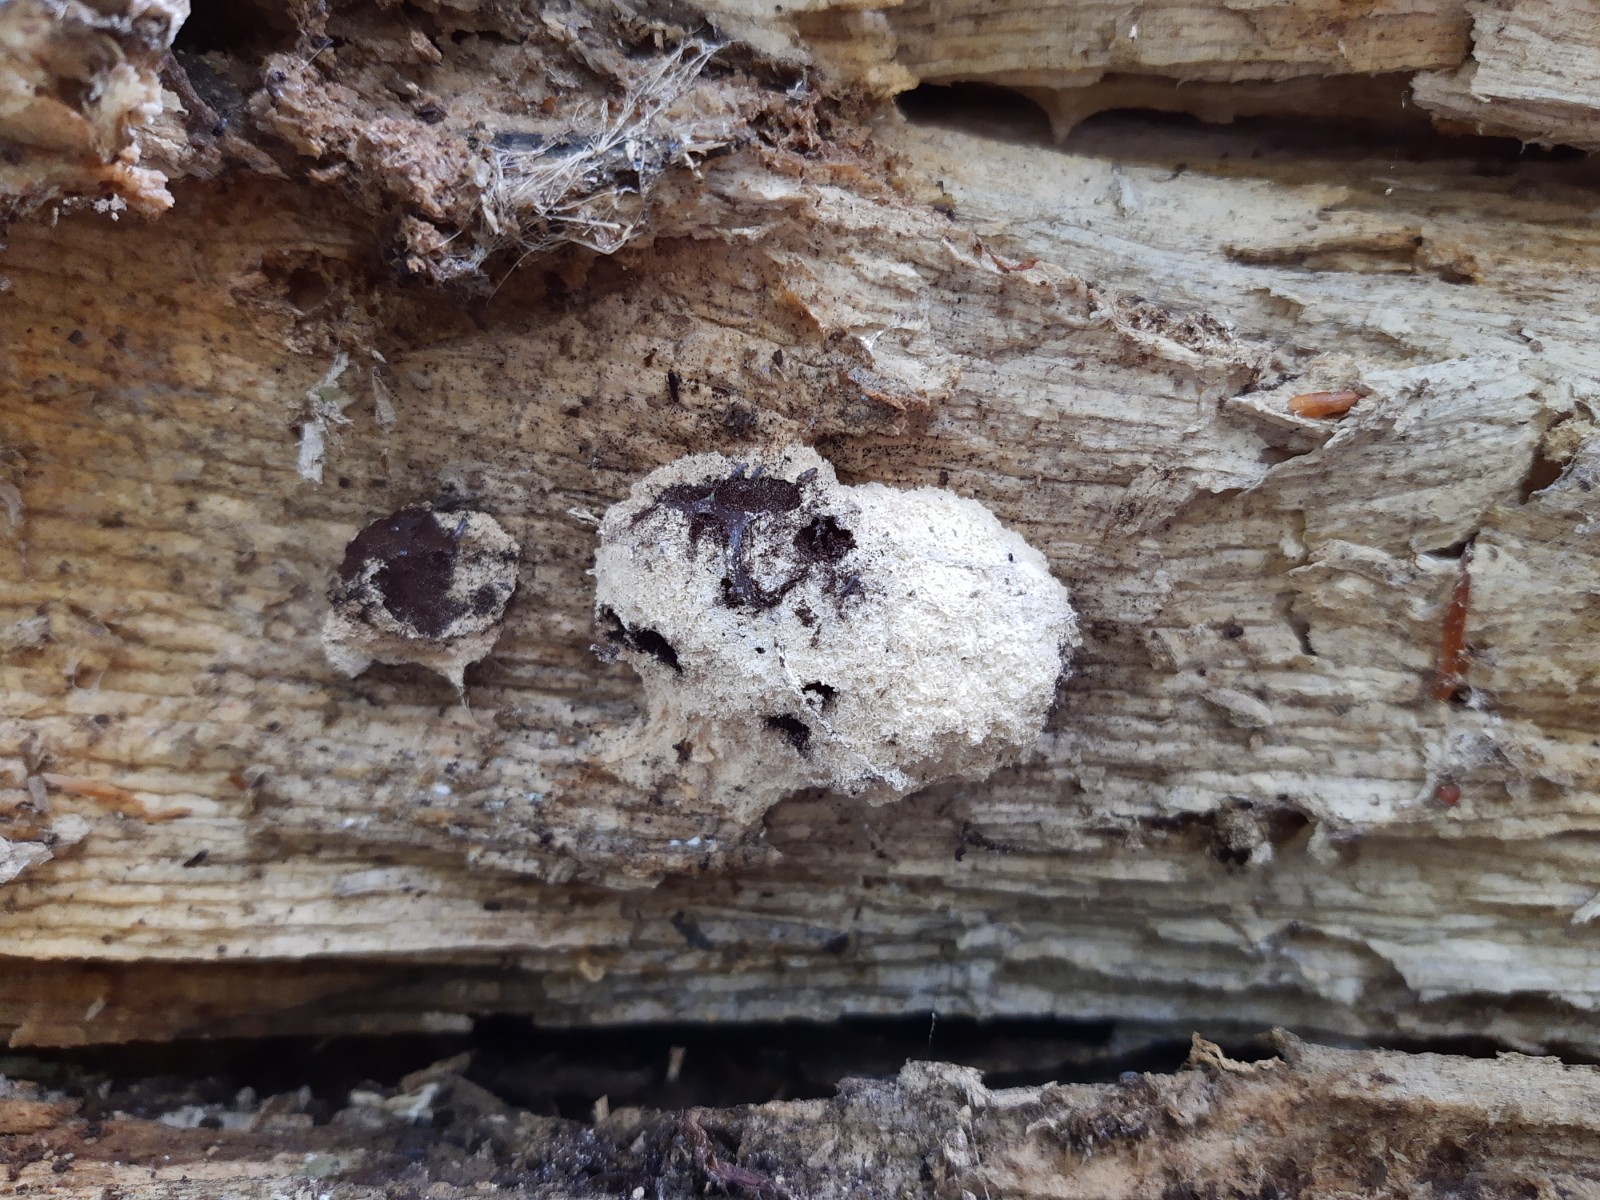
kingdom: Protozoa
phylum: Mycetozoa
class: Myxomycetes
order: Physarales
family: Physaraceae
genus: Fuligo
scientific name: Fuligo septica
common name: gul troldsmør
